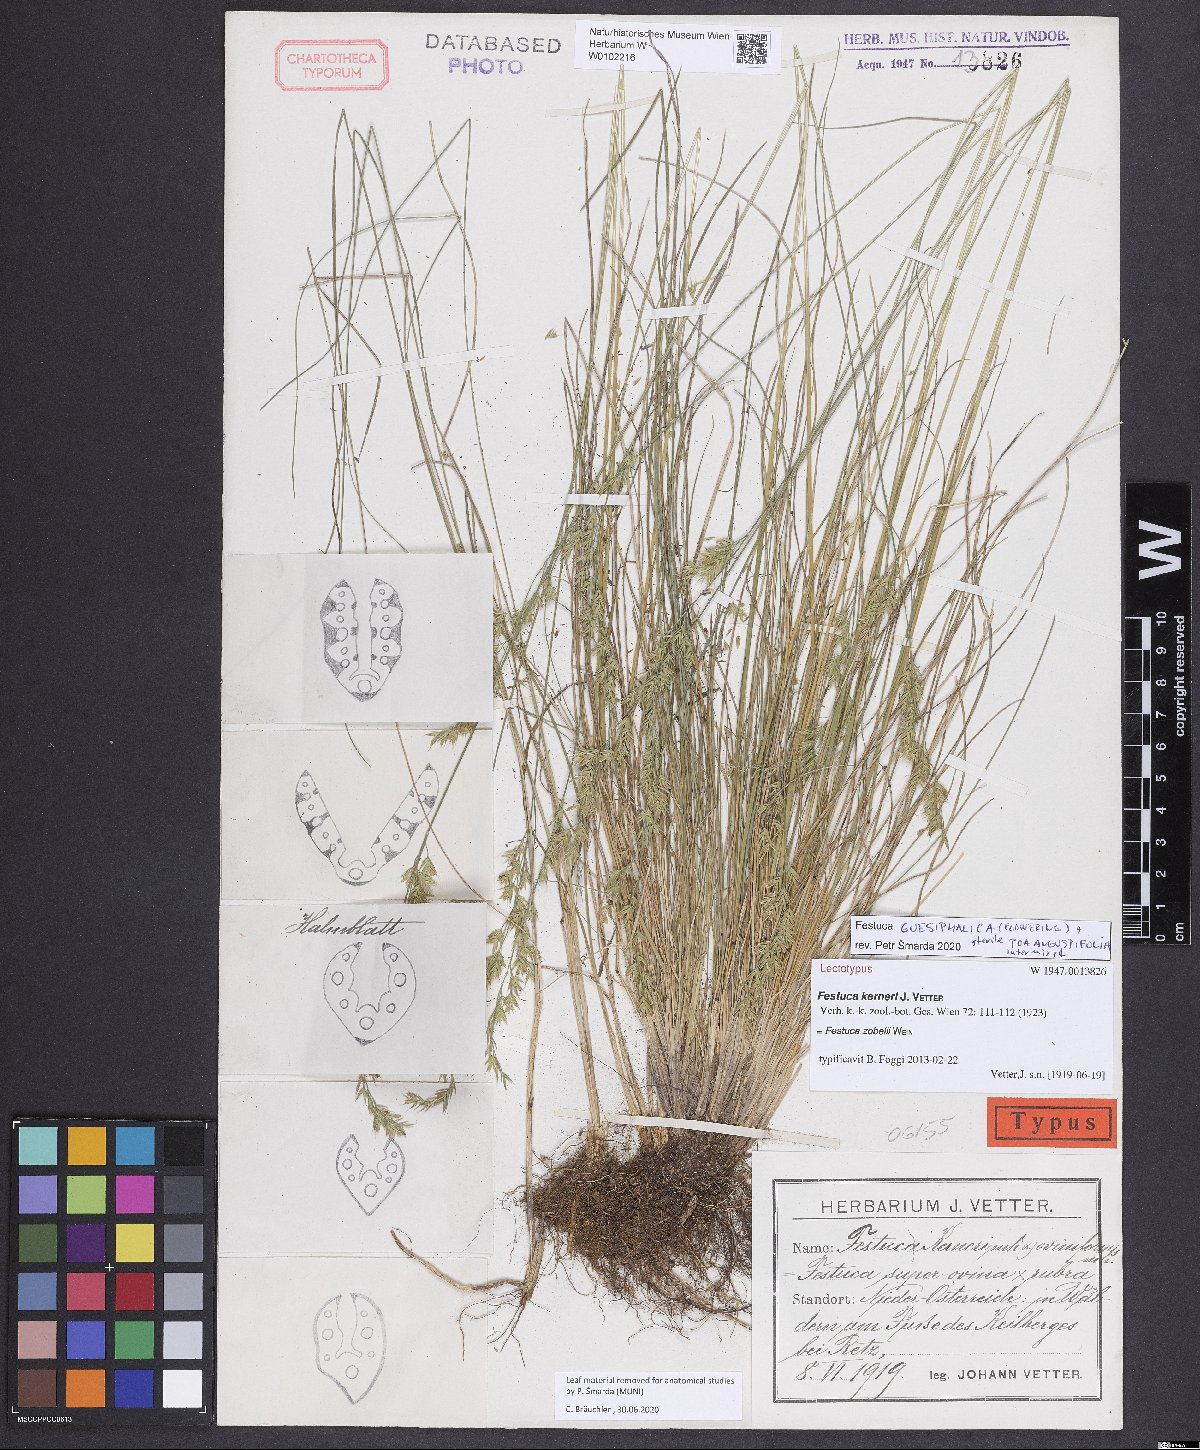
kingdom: Plantae
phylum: Tracheophyta
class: Liliopsida
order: Poales
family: Poaceae
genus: Festuca
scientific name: Festuca zobelii
